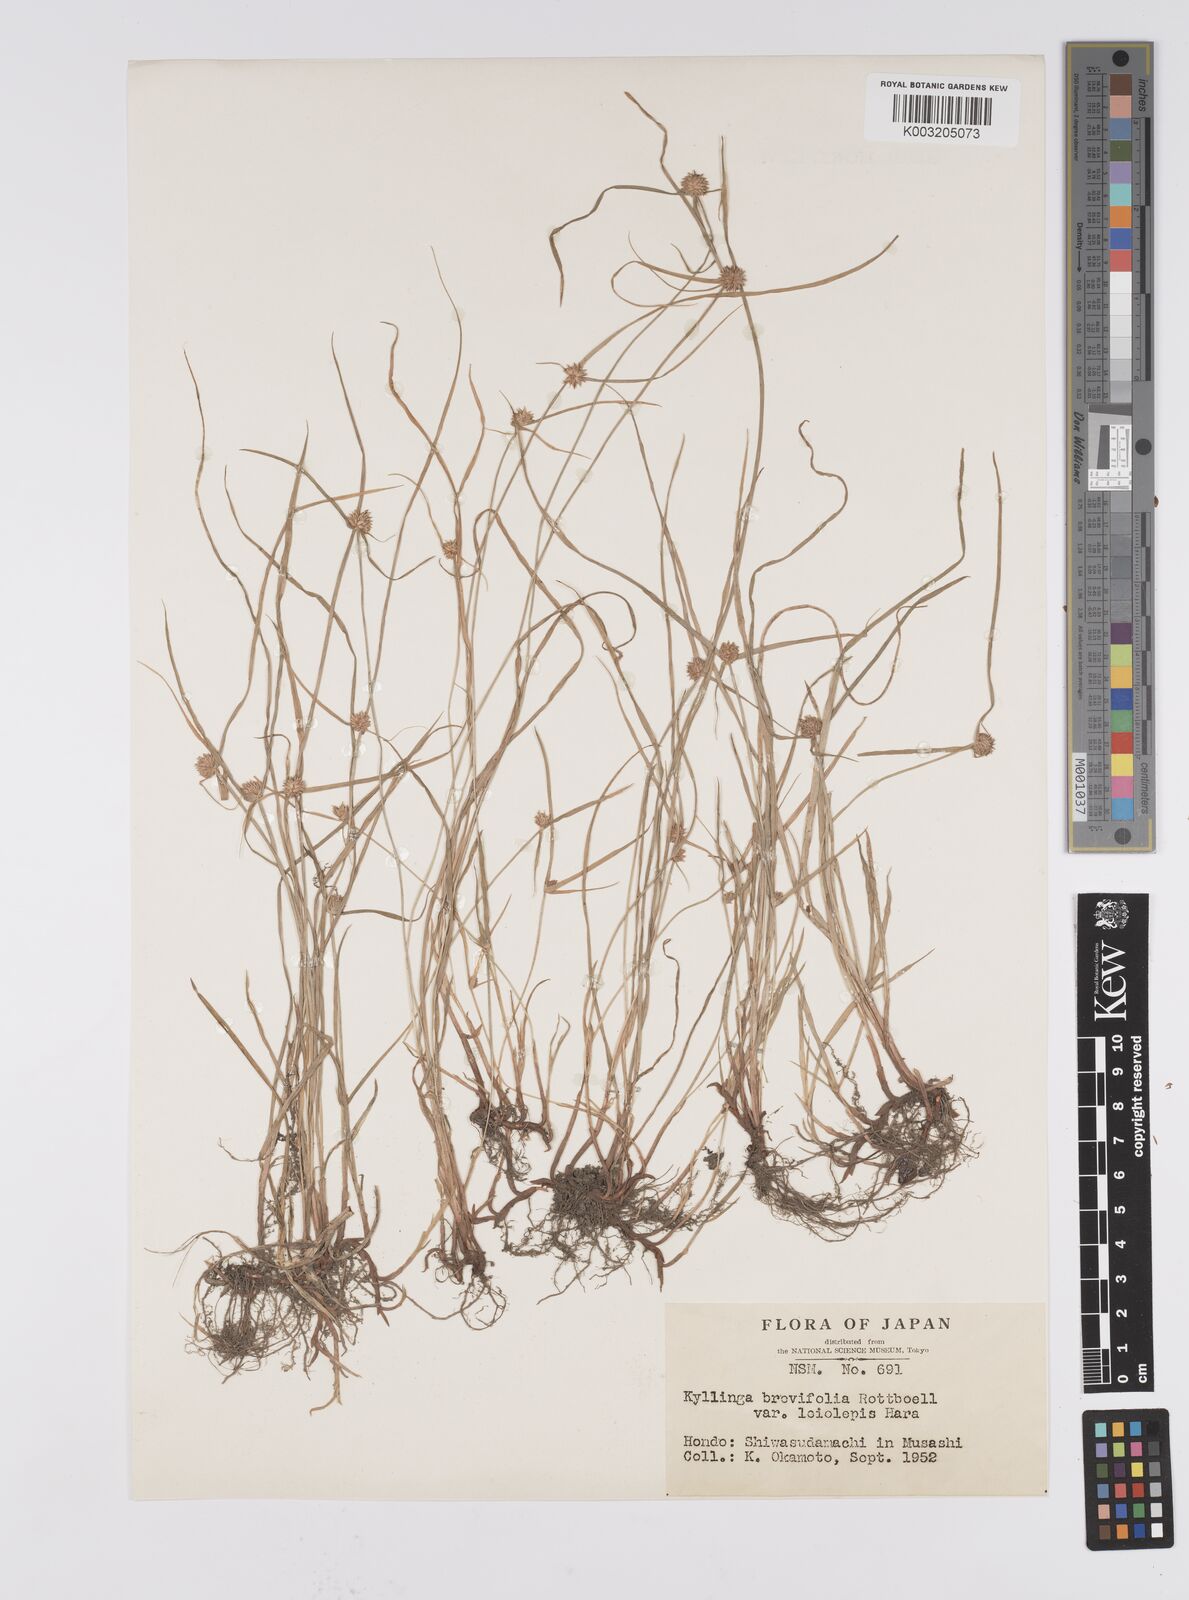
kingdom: Plantae
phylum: Tracheophyta
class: Liliopsida
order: Poales
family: Cyperaceae
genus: Cyperus
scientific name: Cyperus brevifolius
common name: Globe kyllinga
